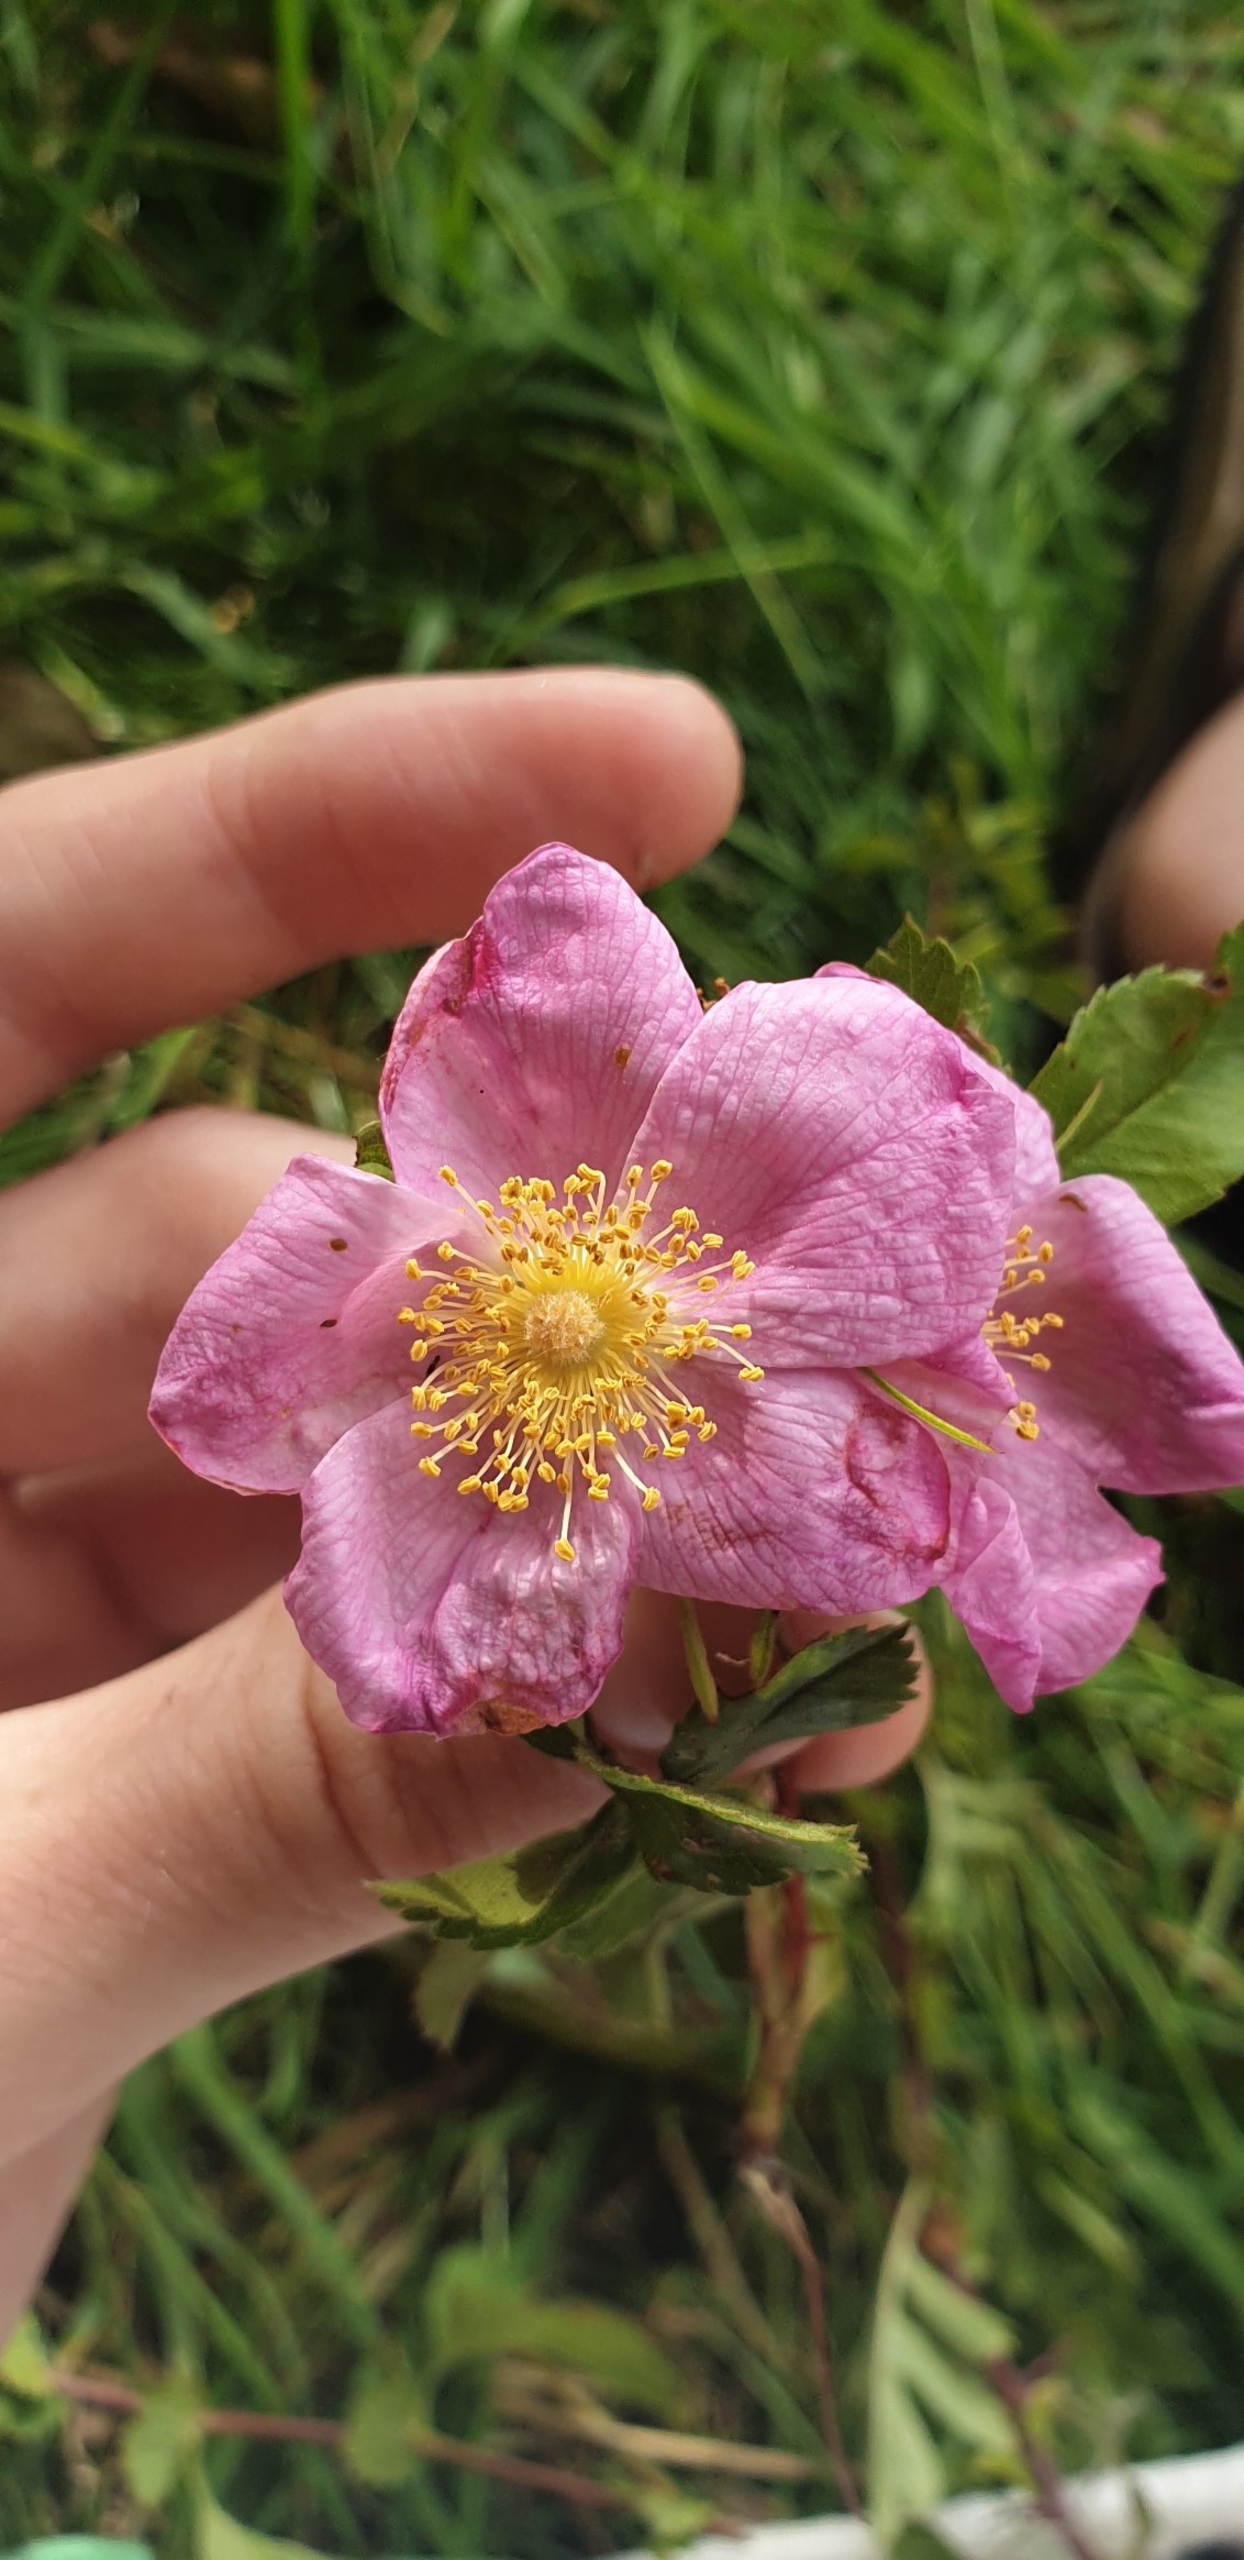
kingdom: Plantae
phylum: Tracheophyta
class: Magnoliopsida
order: Rosales
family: Rosaceae
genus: Rosa
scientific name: Rosa
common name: Roseslægten
